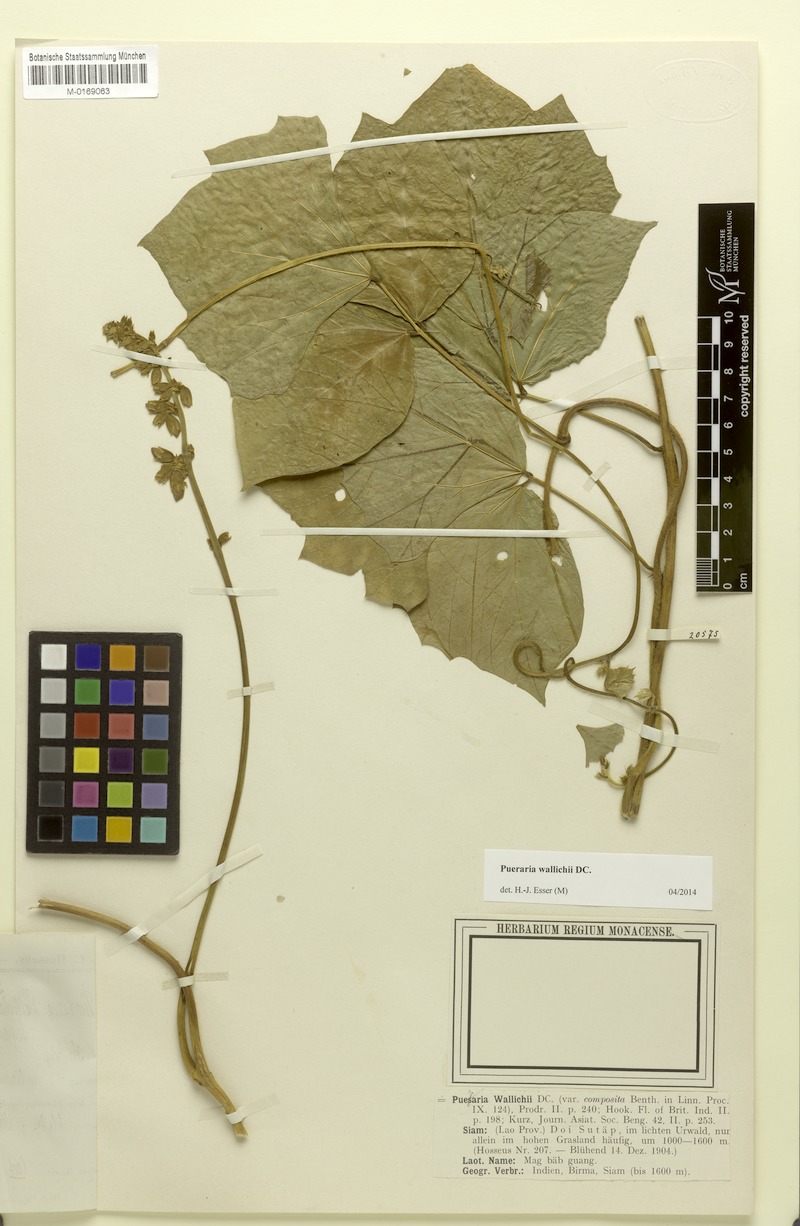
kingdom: Plantae
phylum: Tracheophyta
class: Magnoliopsida
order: Fabales
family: Fabaceae
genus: Pachyrhizus
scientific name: Pachyrhizus erosus
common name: Yam bean
